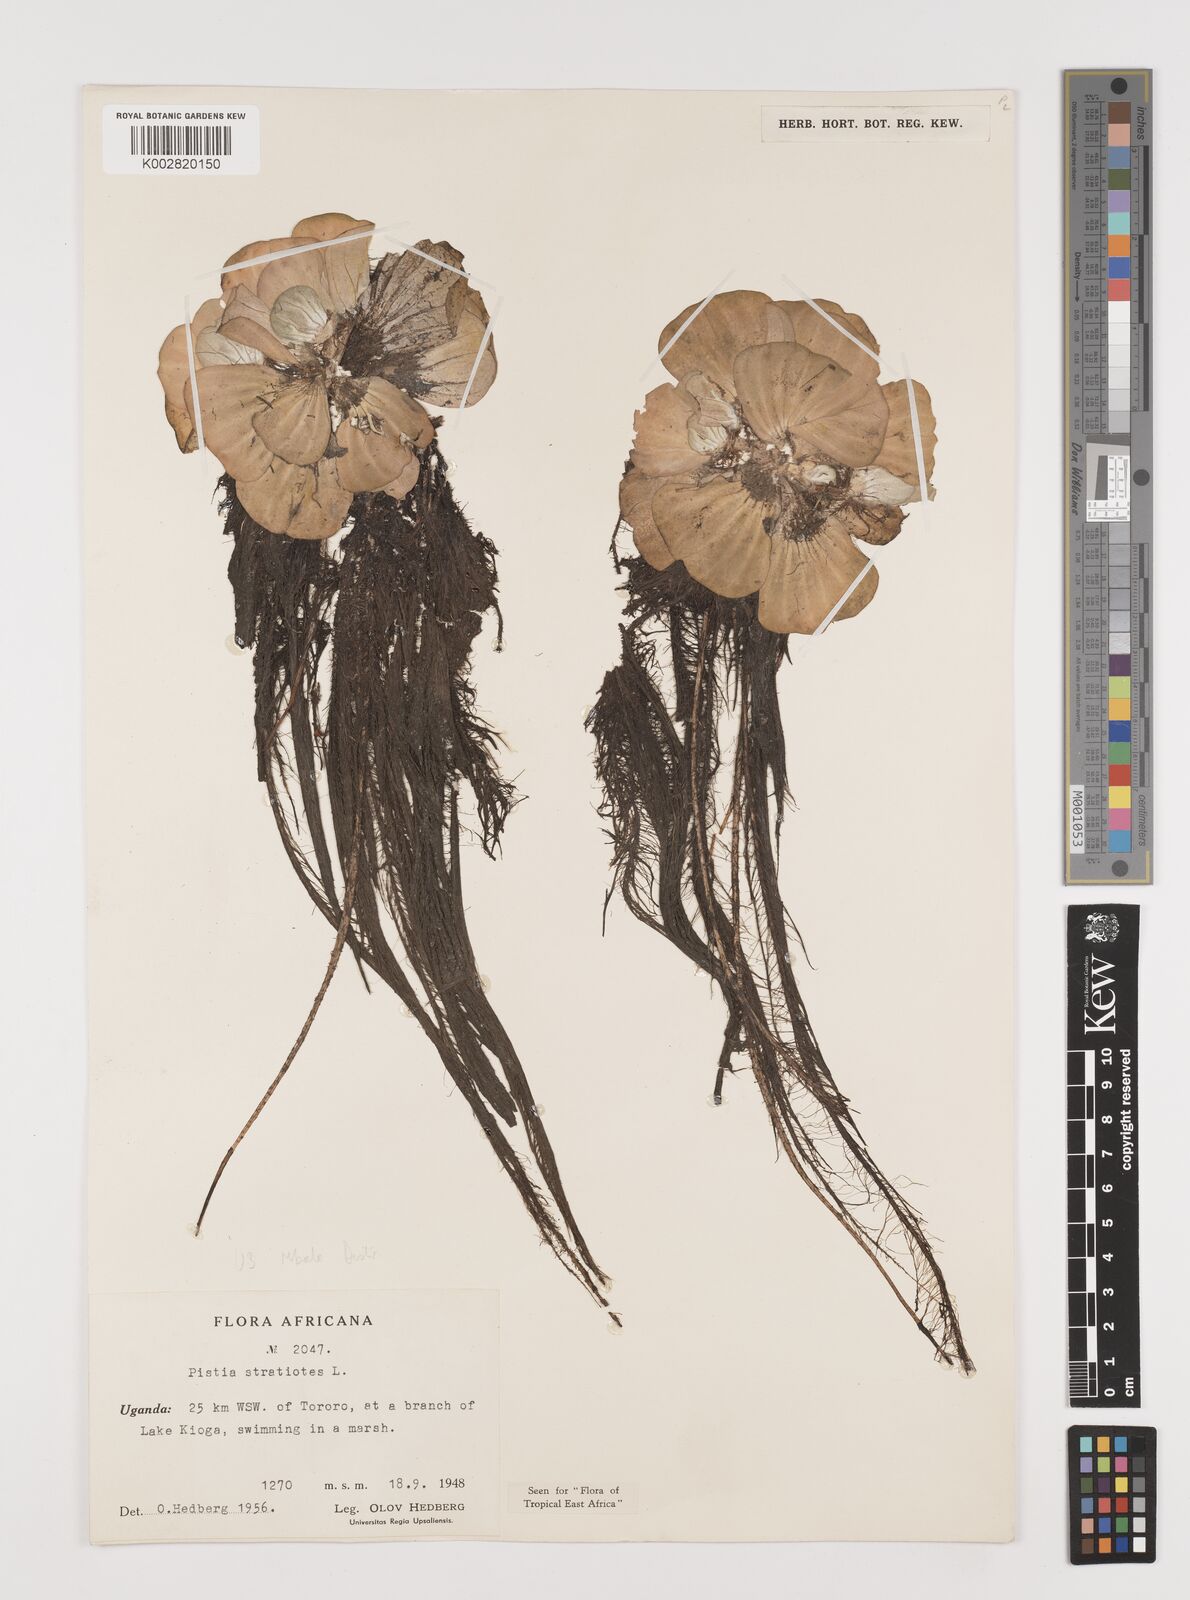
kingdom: Plantae
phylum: Tracheophyta
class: Liliopsida
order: Alismatales
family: Araceae
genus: Pistia
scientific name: Pistia stratiotes
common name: Water lettuce
